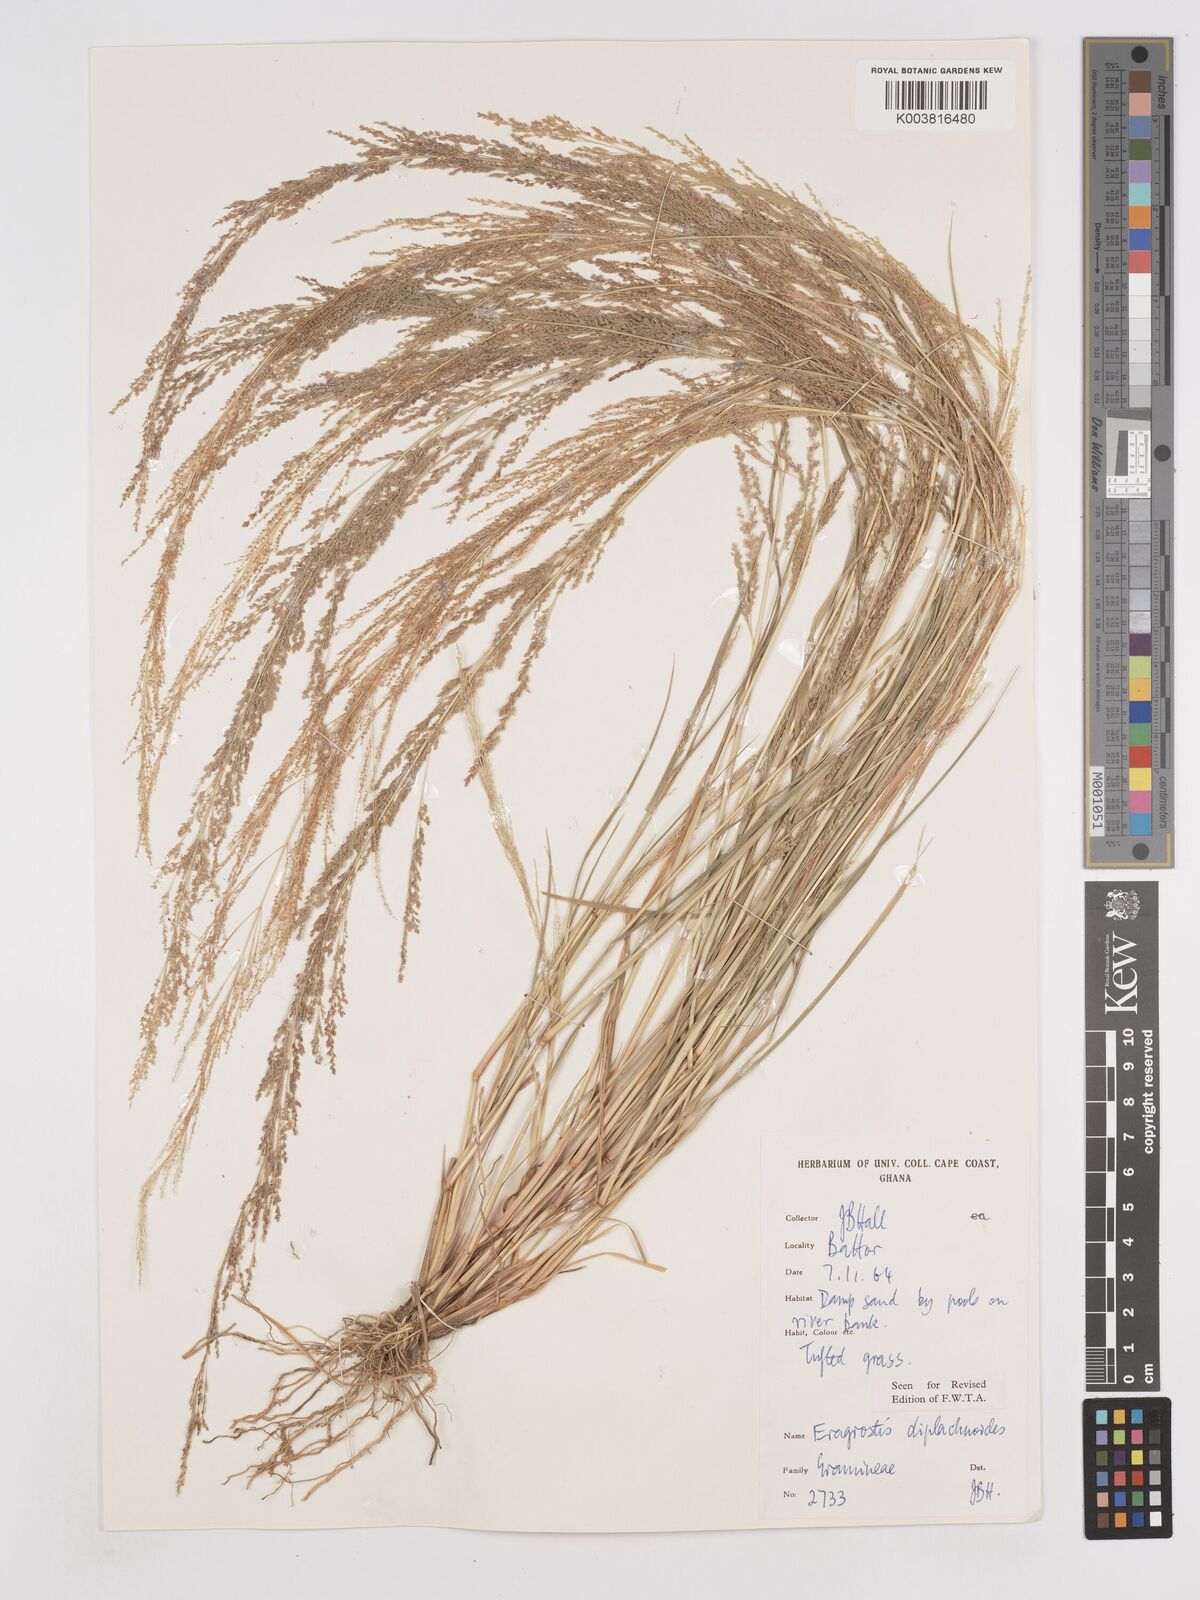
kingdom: Plantae
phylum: Tracheophyta
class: Liliopsida
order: Poales
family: Poaceae
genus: Eragrostis
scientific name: Eragrostis japonica
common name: Pond lovegrass
